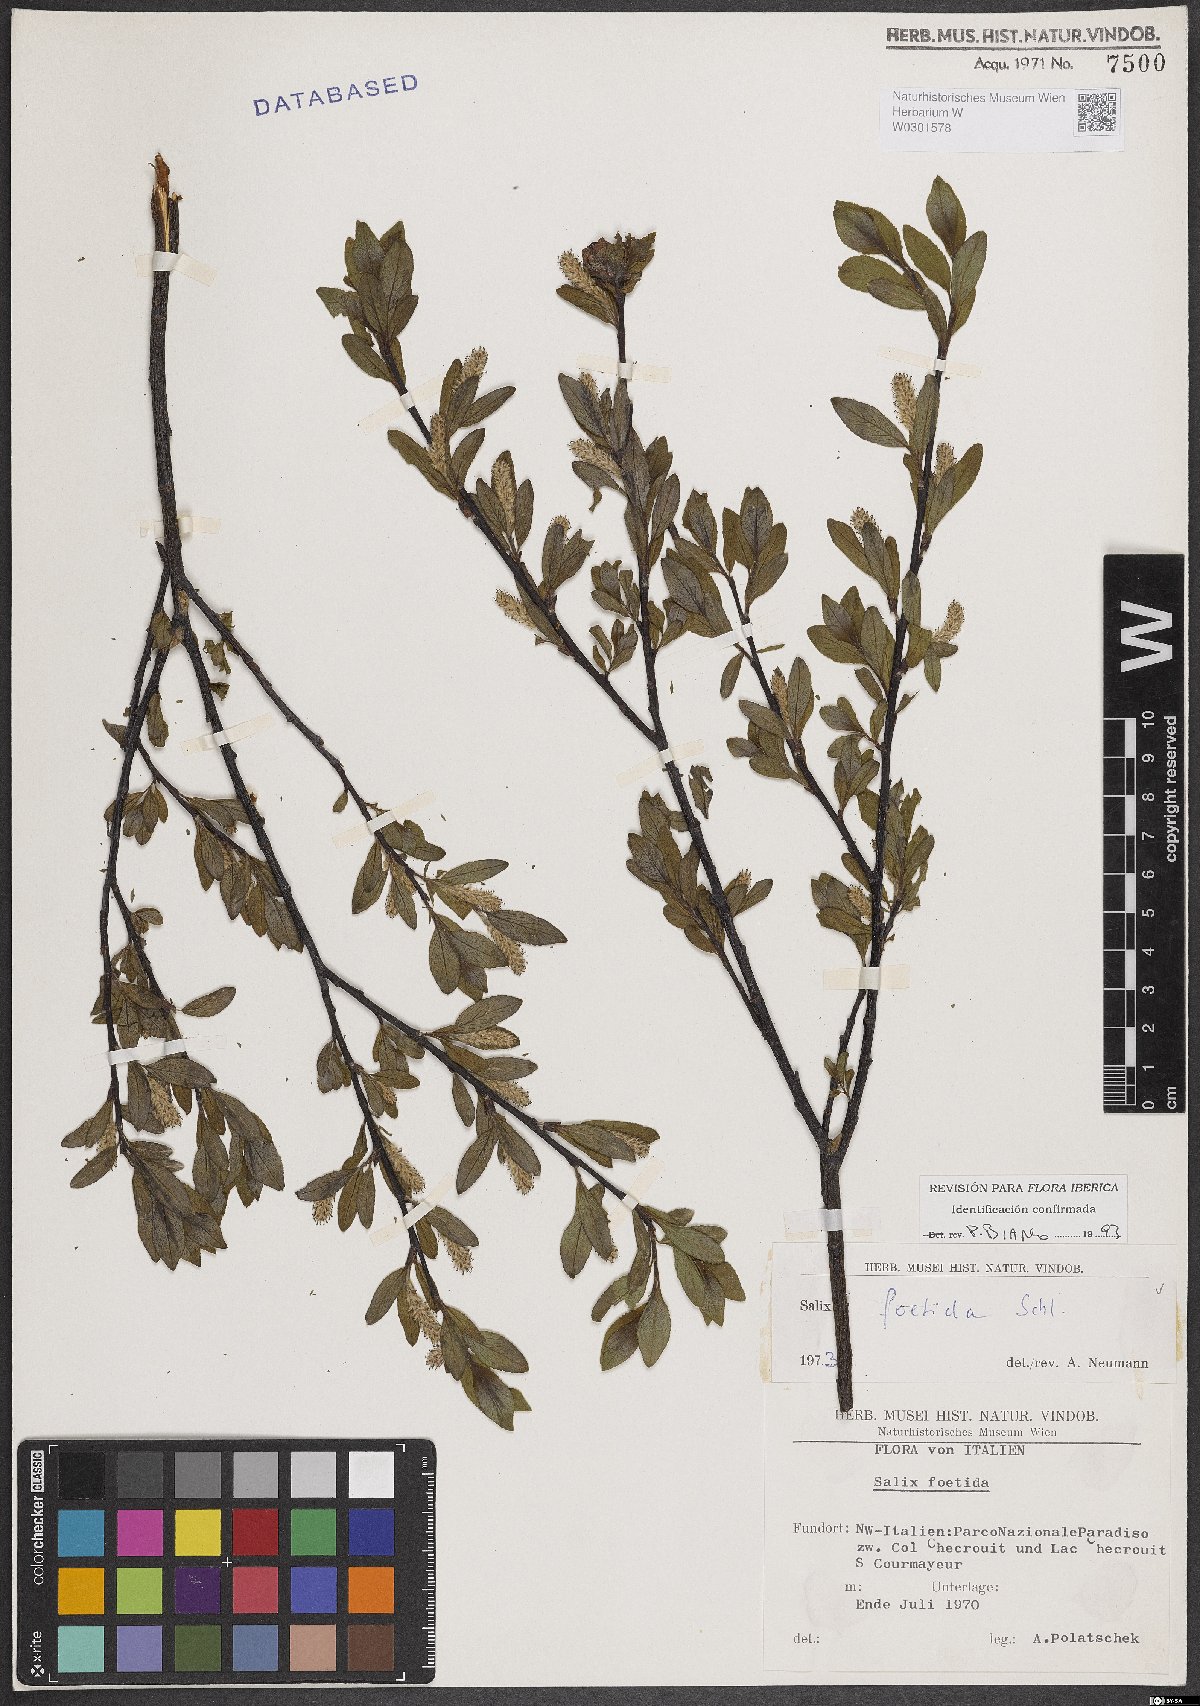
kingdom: Plantae
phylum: Tracheophyta
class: Magnoliopsida
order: Malpighiales
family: Salicaceae
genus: Salix
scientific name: Salix foetida
